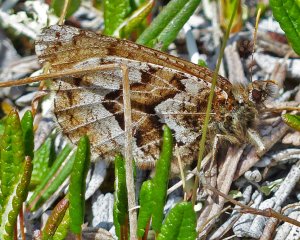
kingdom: Animalia
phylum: Arthropoda
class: Insecta
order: Lepidoptera
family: Nymphalidae
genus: Oeneis
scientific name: Oeneis bore
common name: White-veined Arctic
